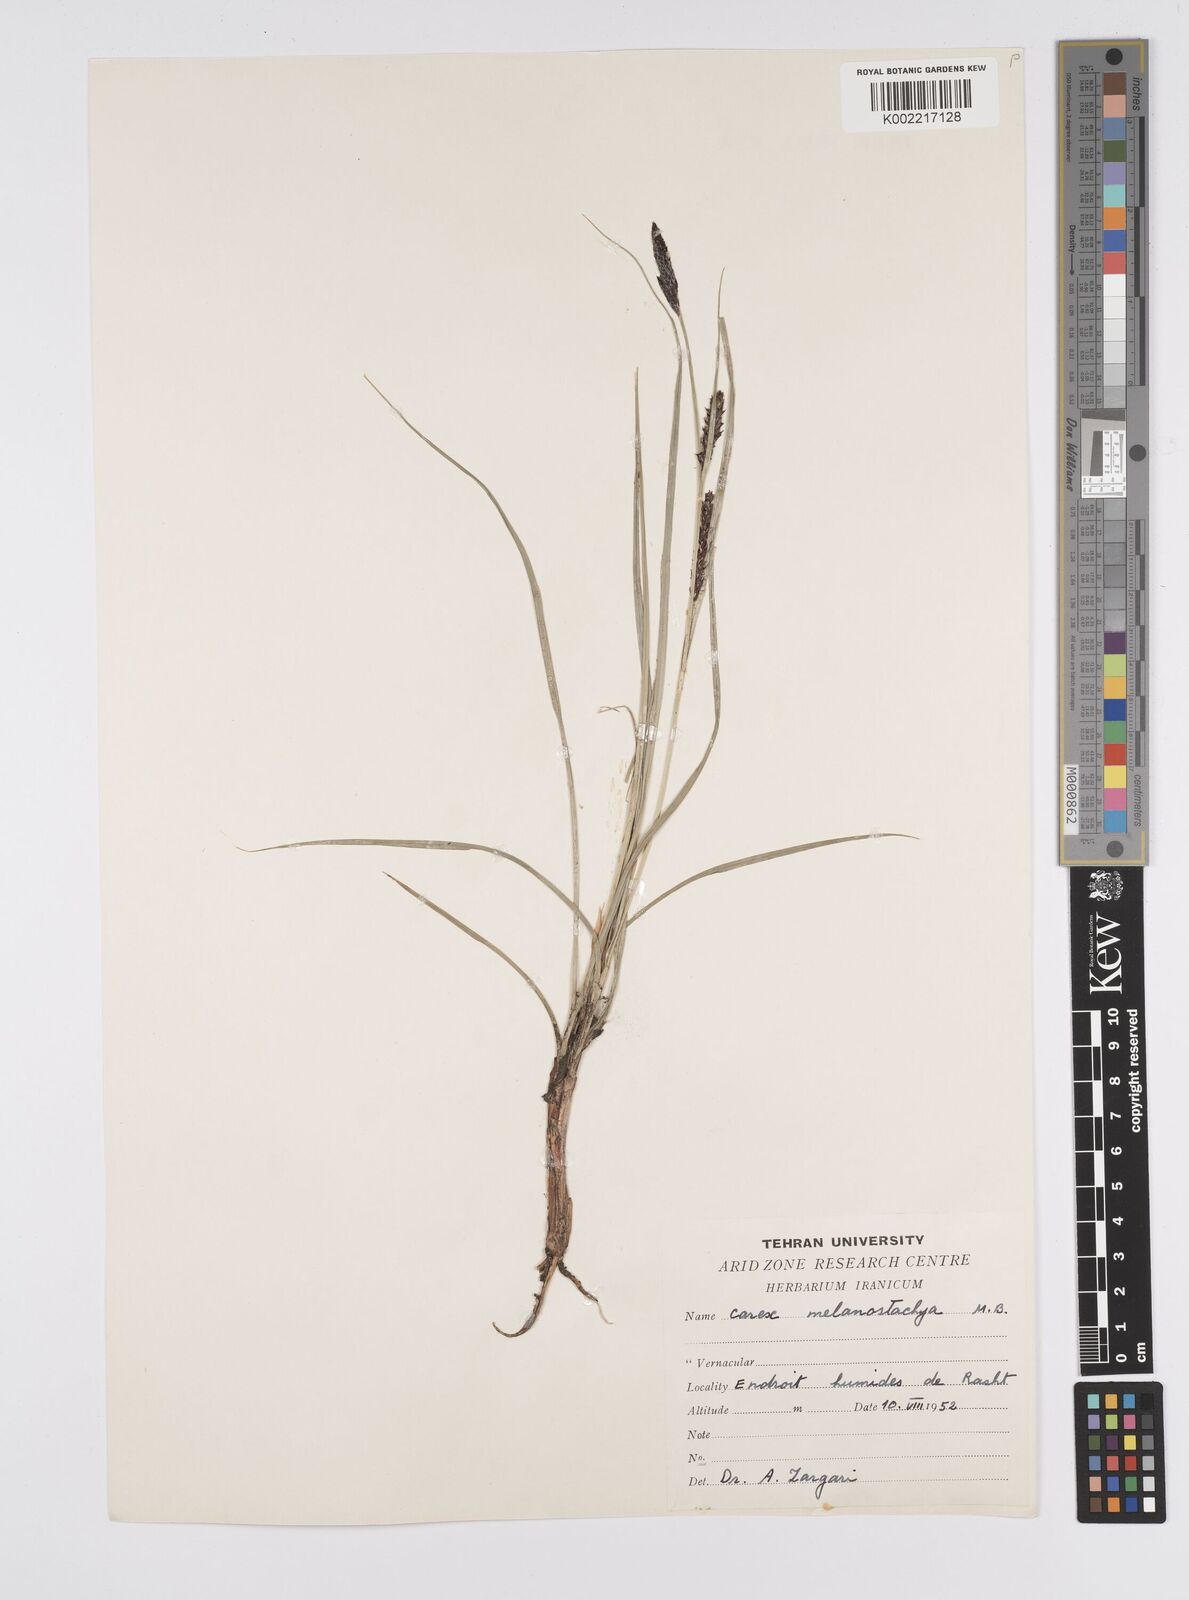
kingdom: Plantae
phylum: Tracheophyta
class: Liliopsida
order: Poales
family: Cyperaceae
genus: Carex
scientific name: Carex melanostachya
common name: Black-spiked sedge
